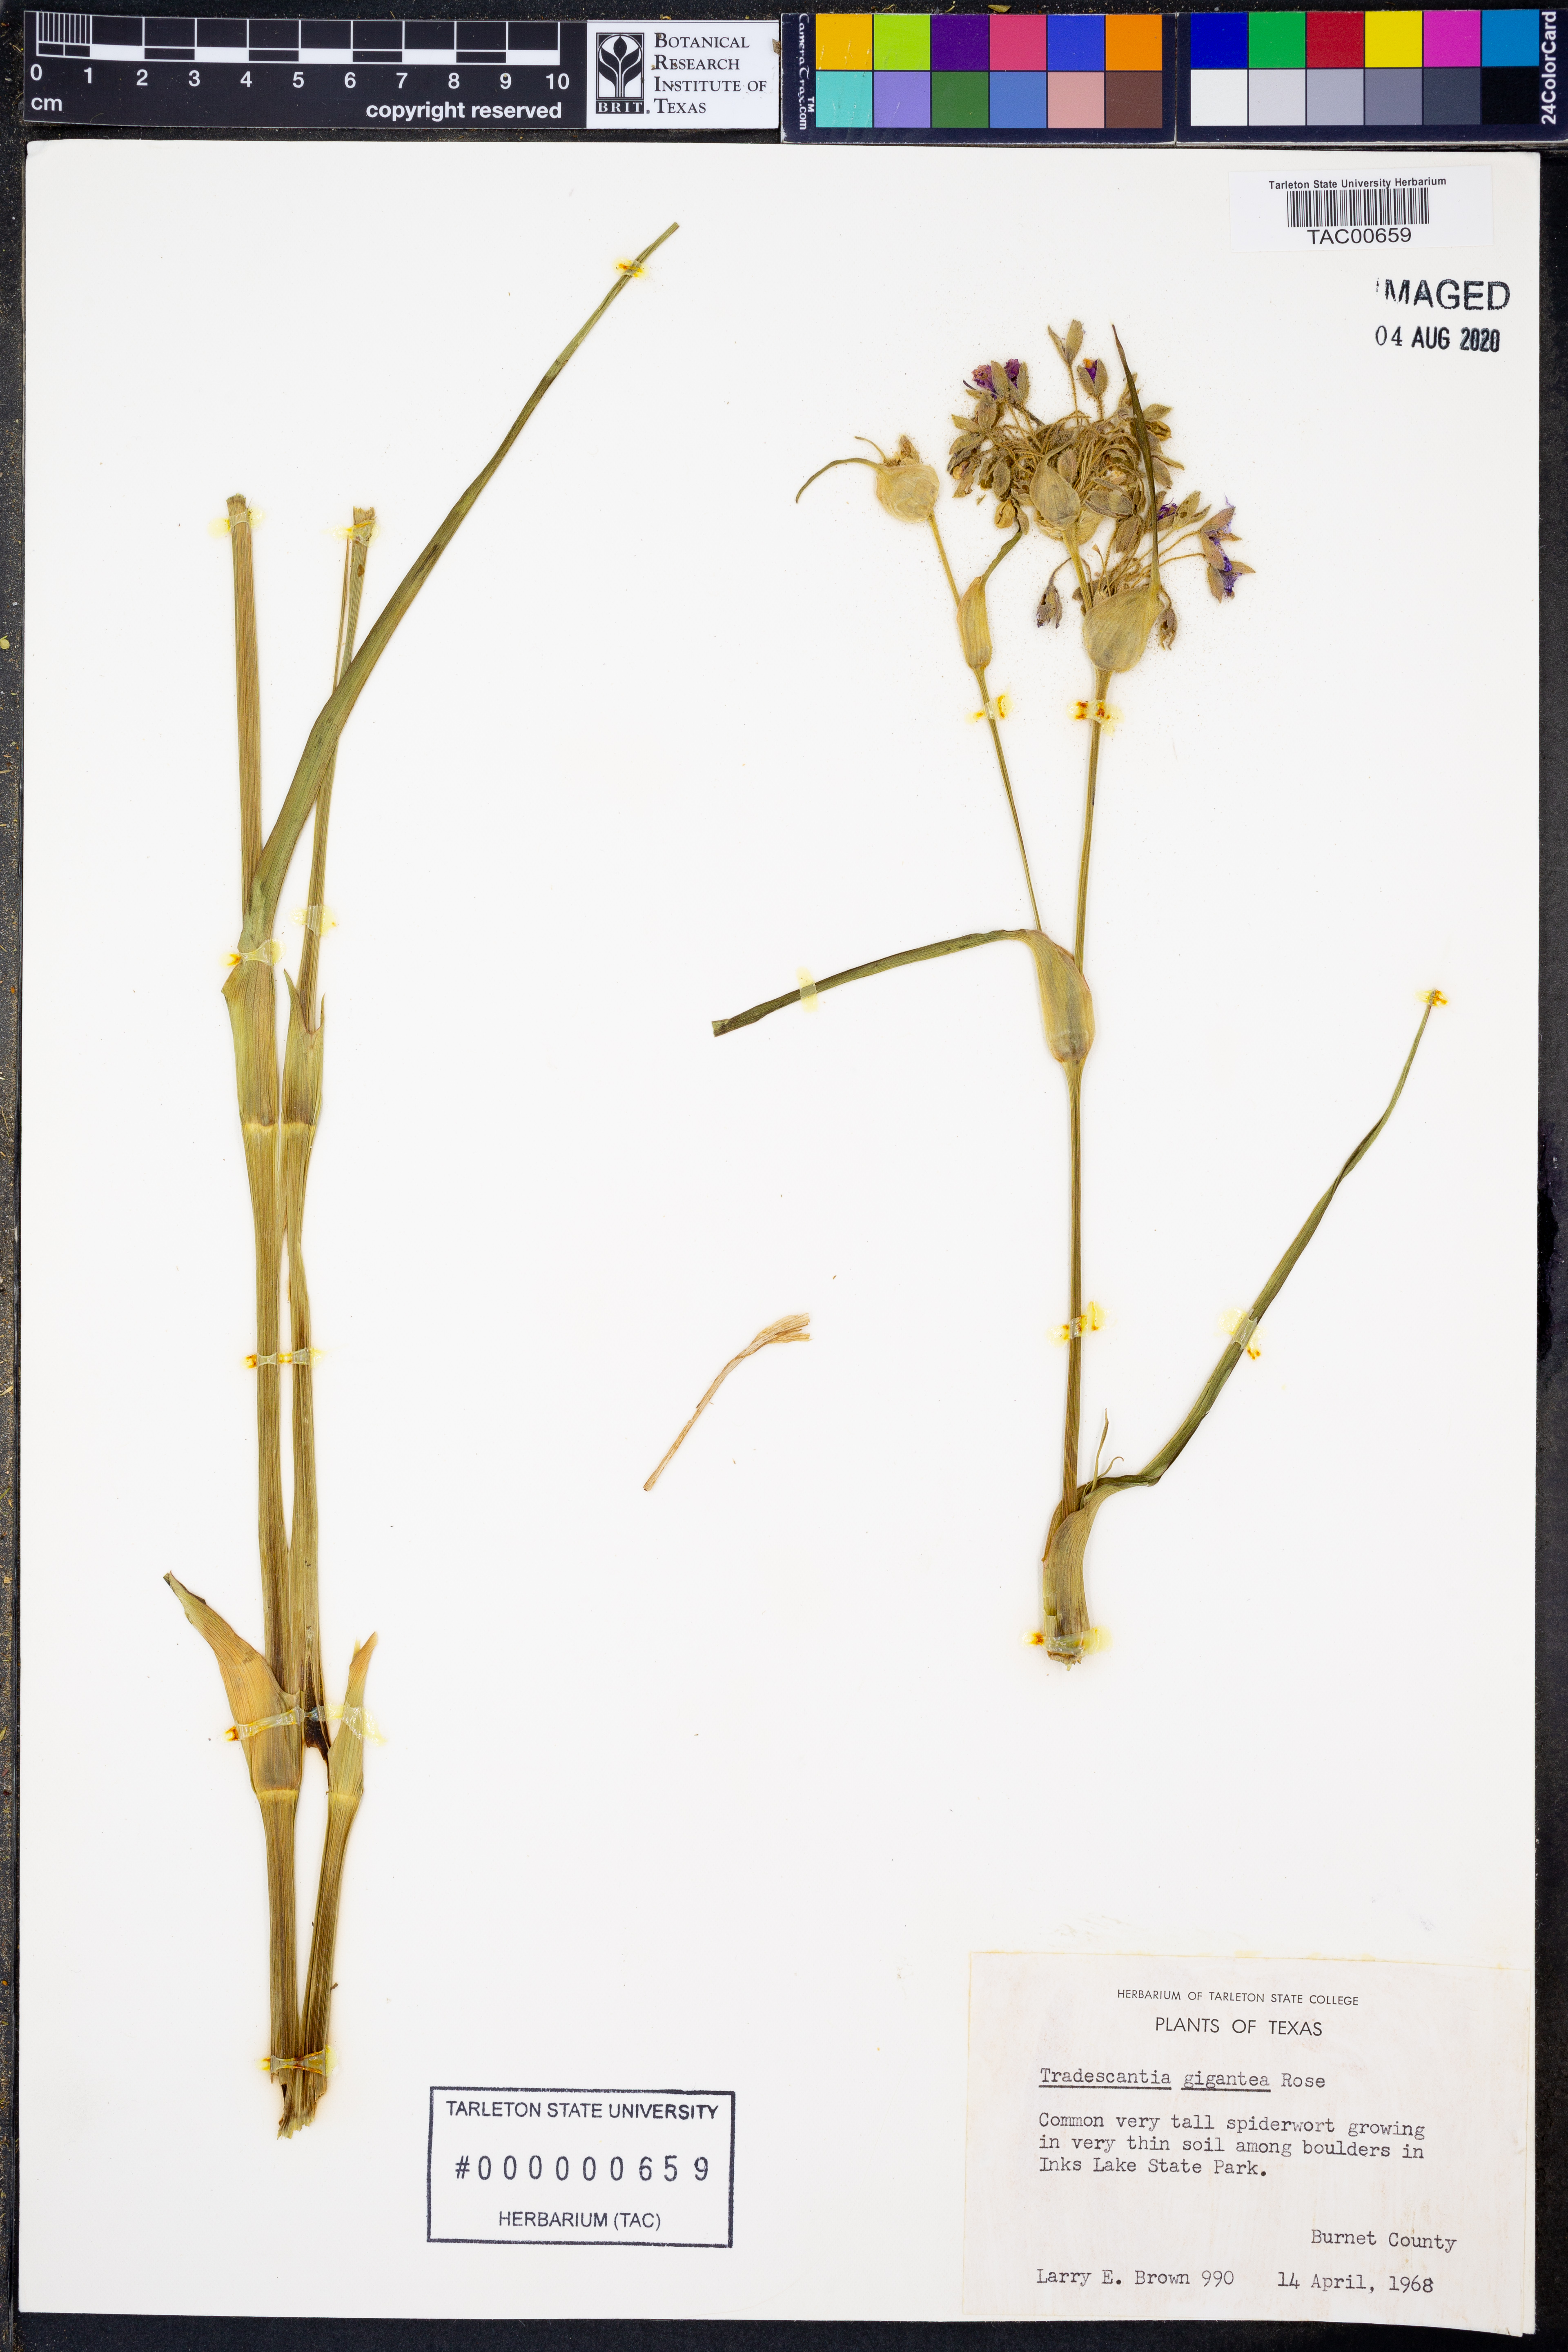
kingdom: Plantae
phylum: Tracheophyta
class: Liliopsida
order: Commelinales
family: Commelinaceae
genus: Tradescantia
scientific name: Tradescantia gigantea
